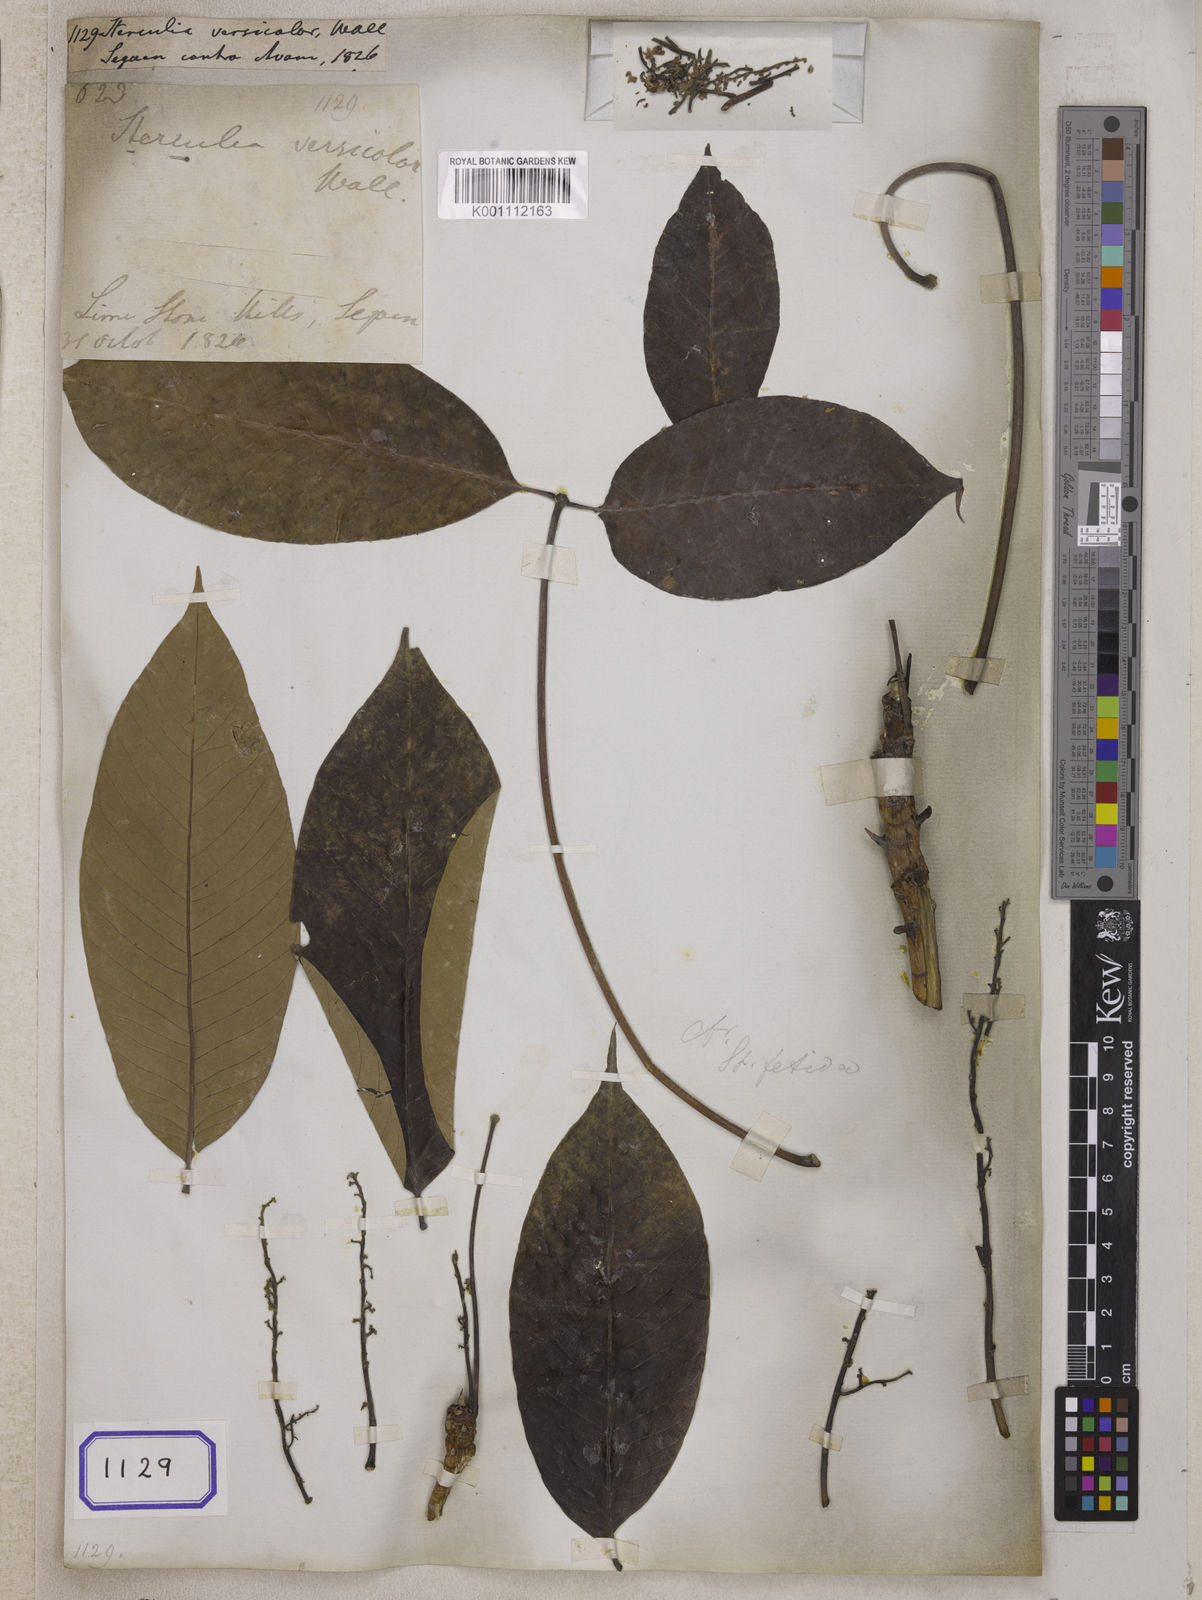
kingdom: Plantae
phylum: Tracheophyta
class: Magnoliopsida
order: Malvales
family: Malvaceae
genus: Sterculia
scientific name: Sterculia versicolor
